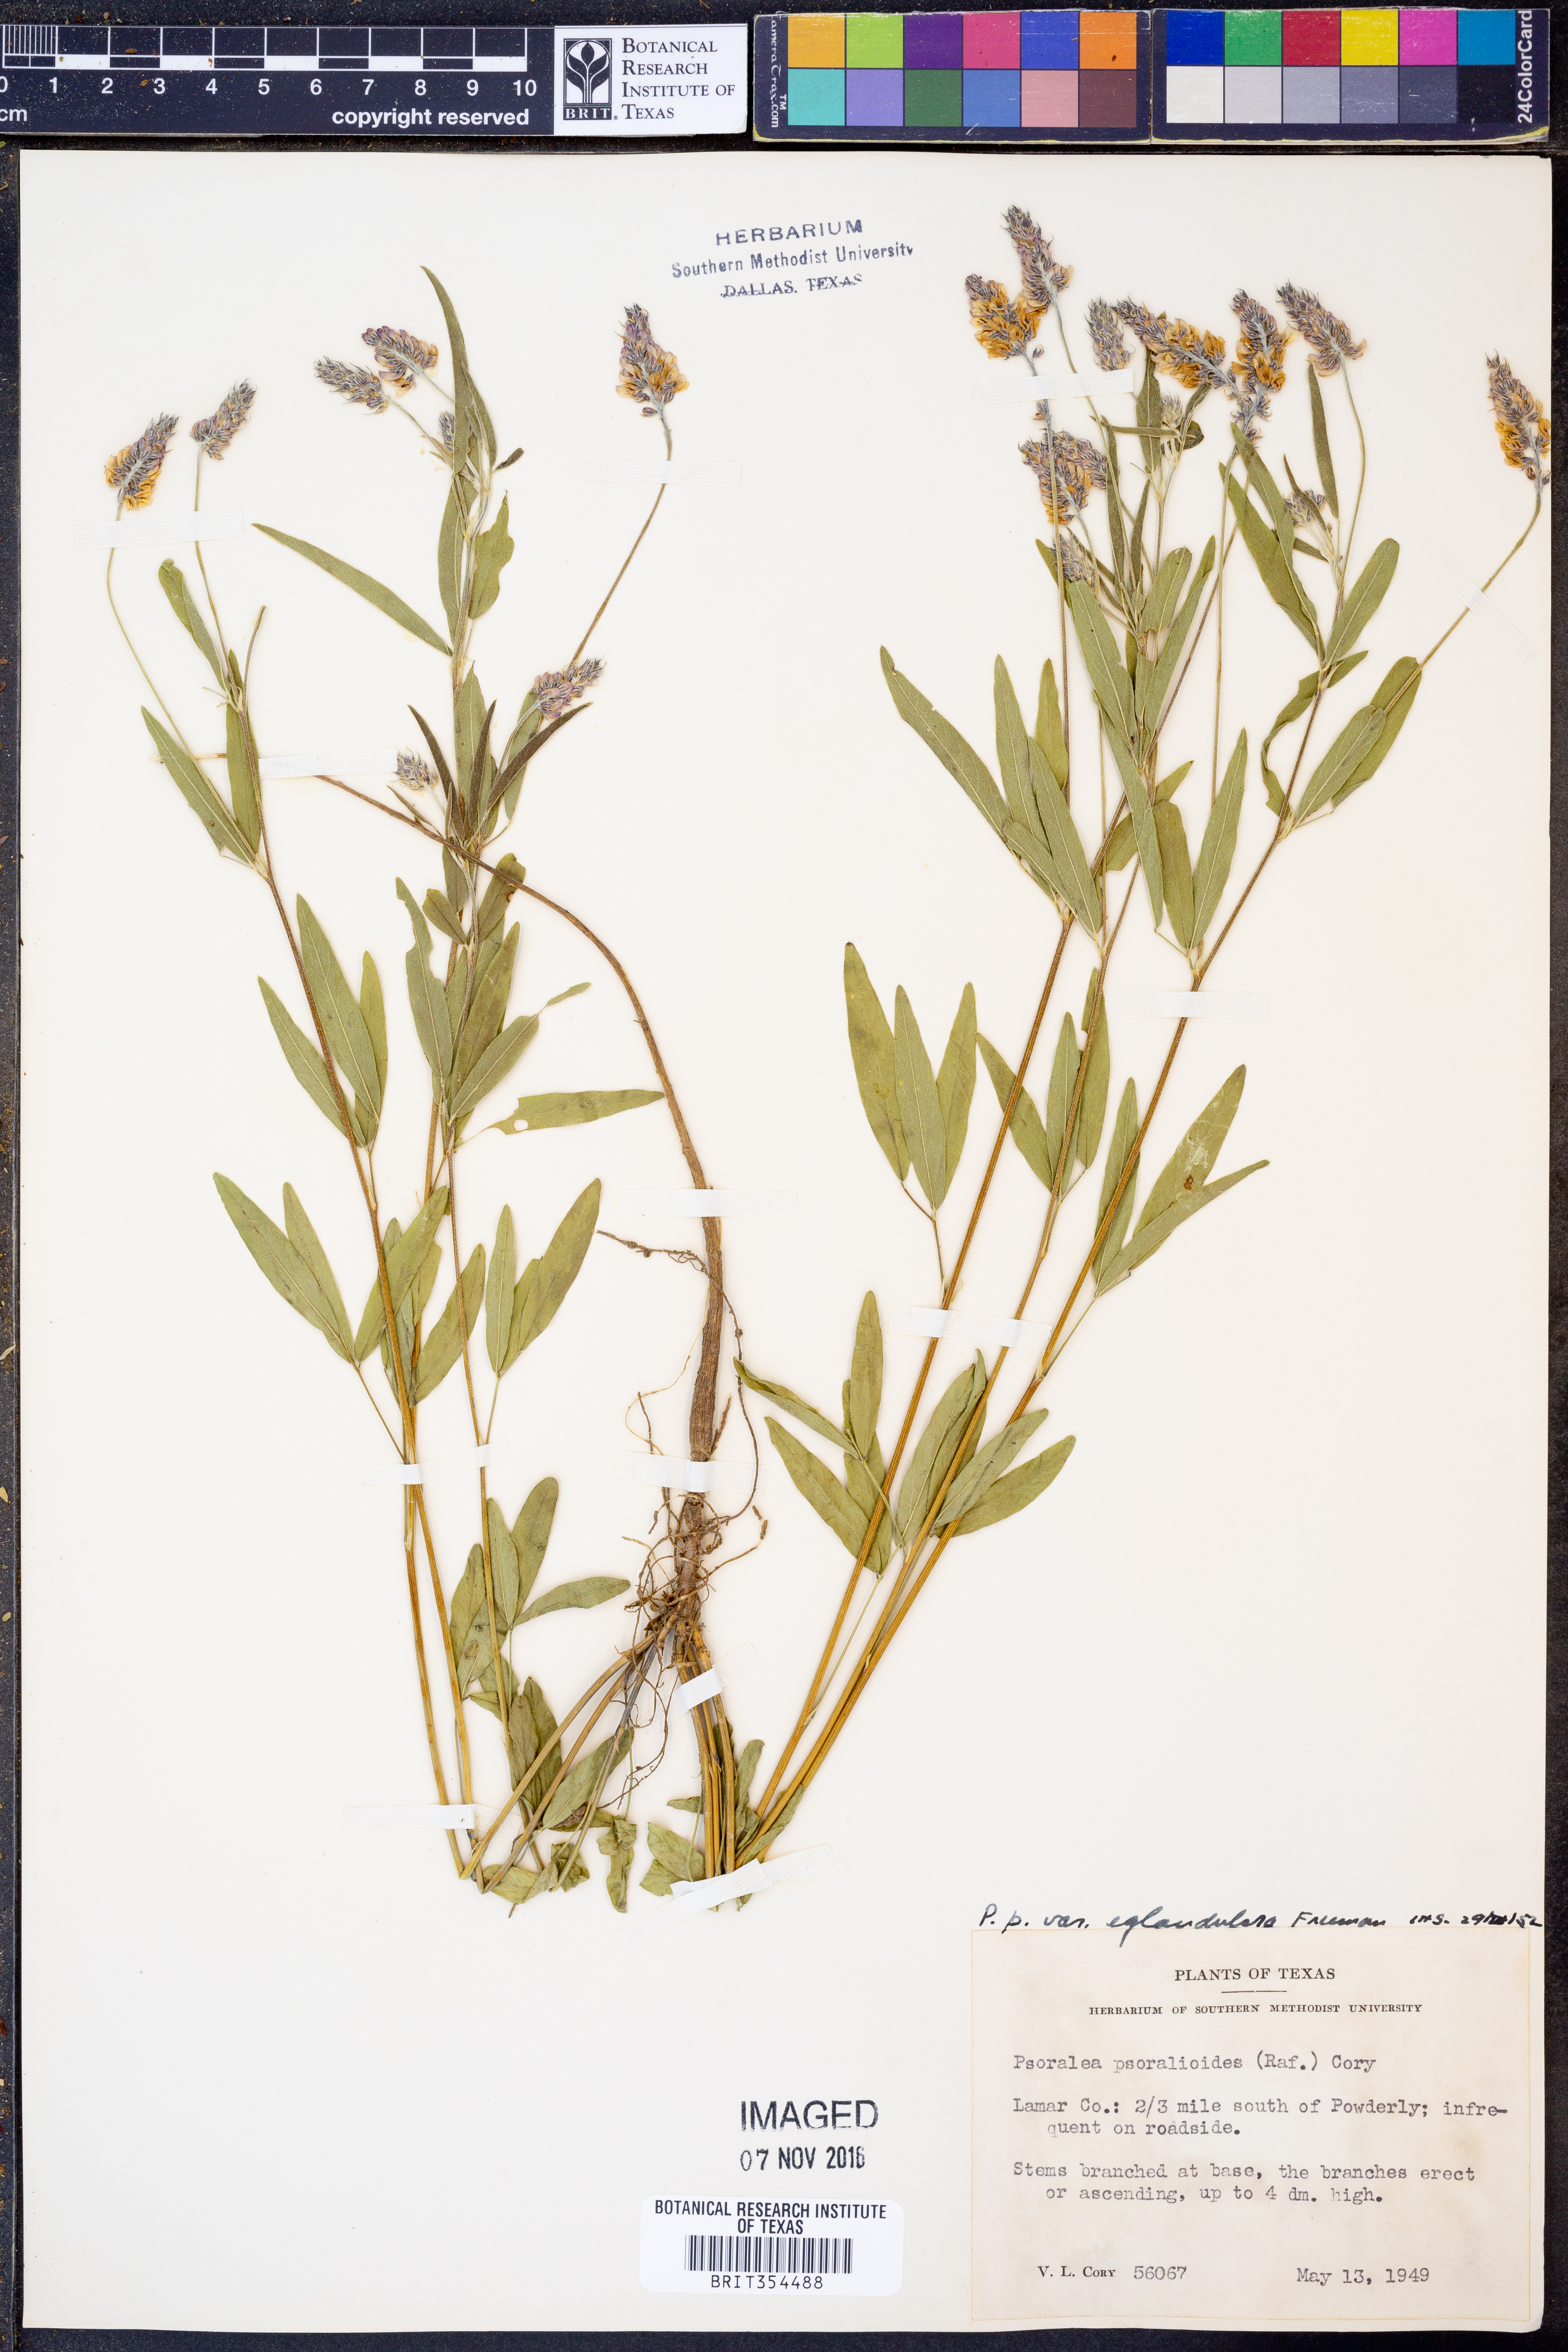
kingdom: Plantae
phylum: Tracheophyta
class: Magnoliopsida
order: Fabales
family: Fabaceae
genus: Orbexilum
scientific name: Orbexilum pedunculatum
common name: Sampson's snakeroot
